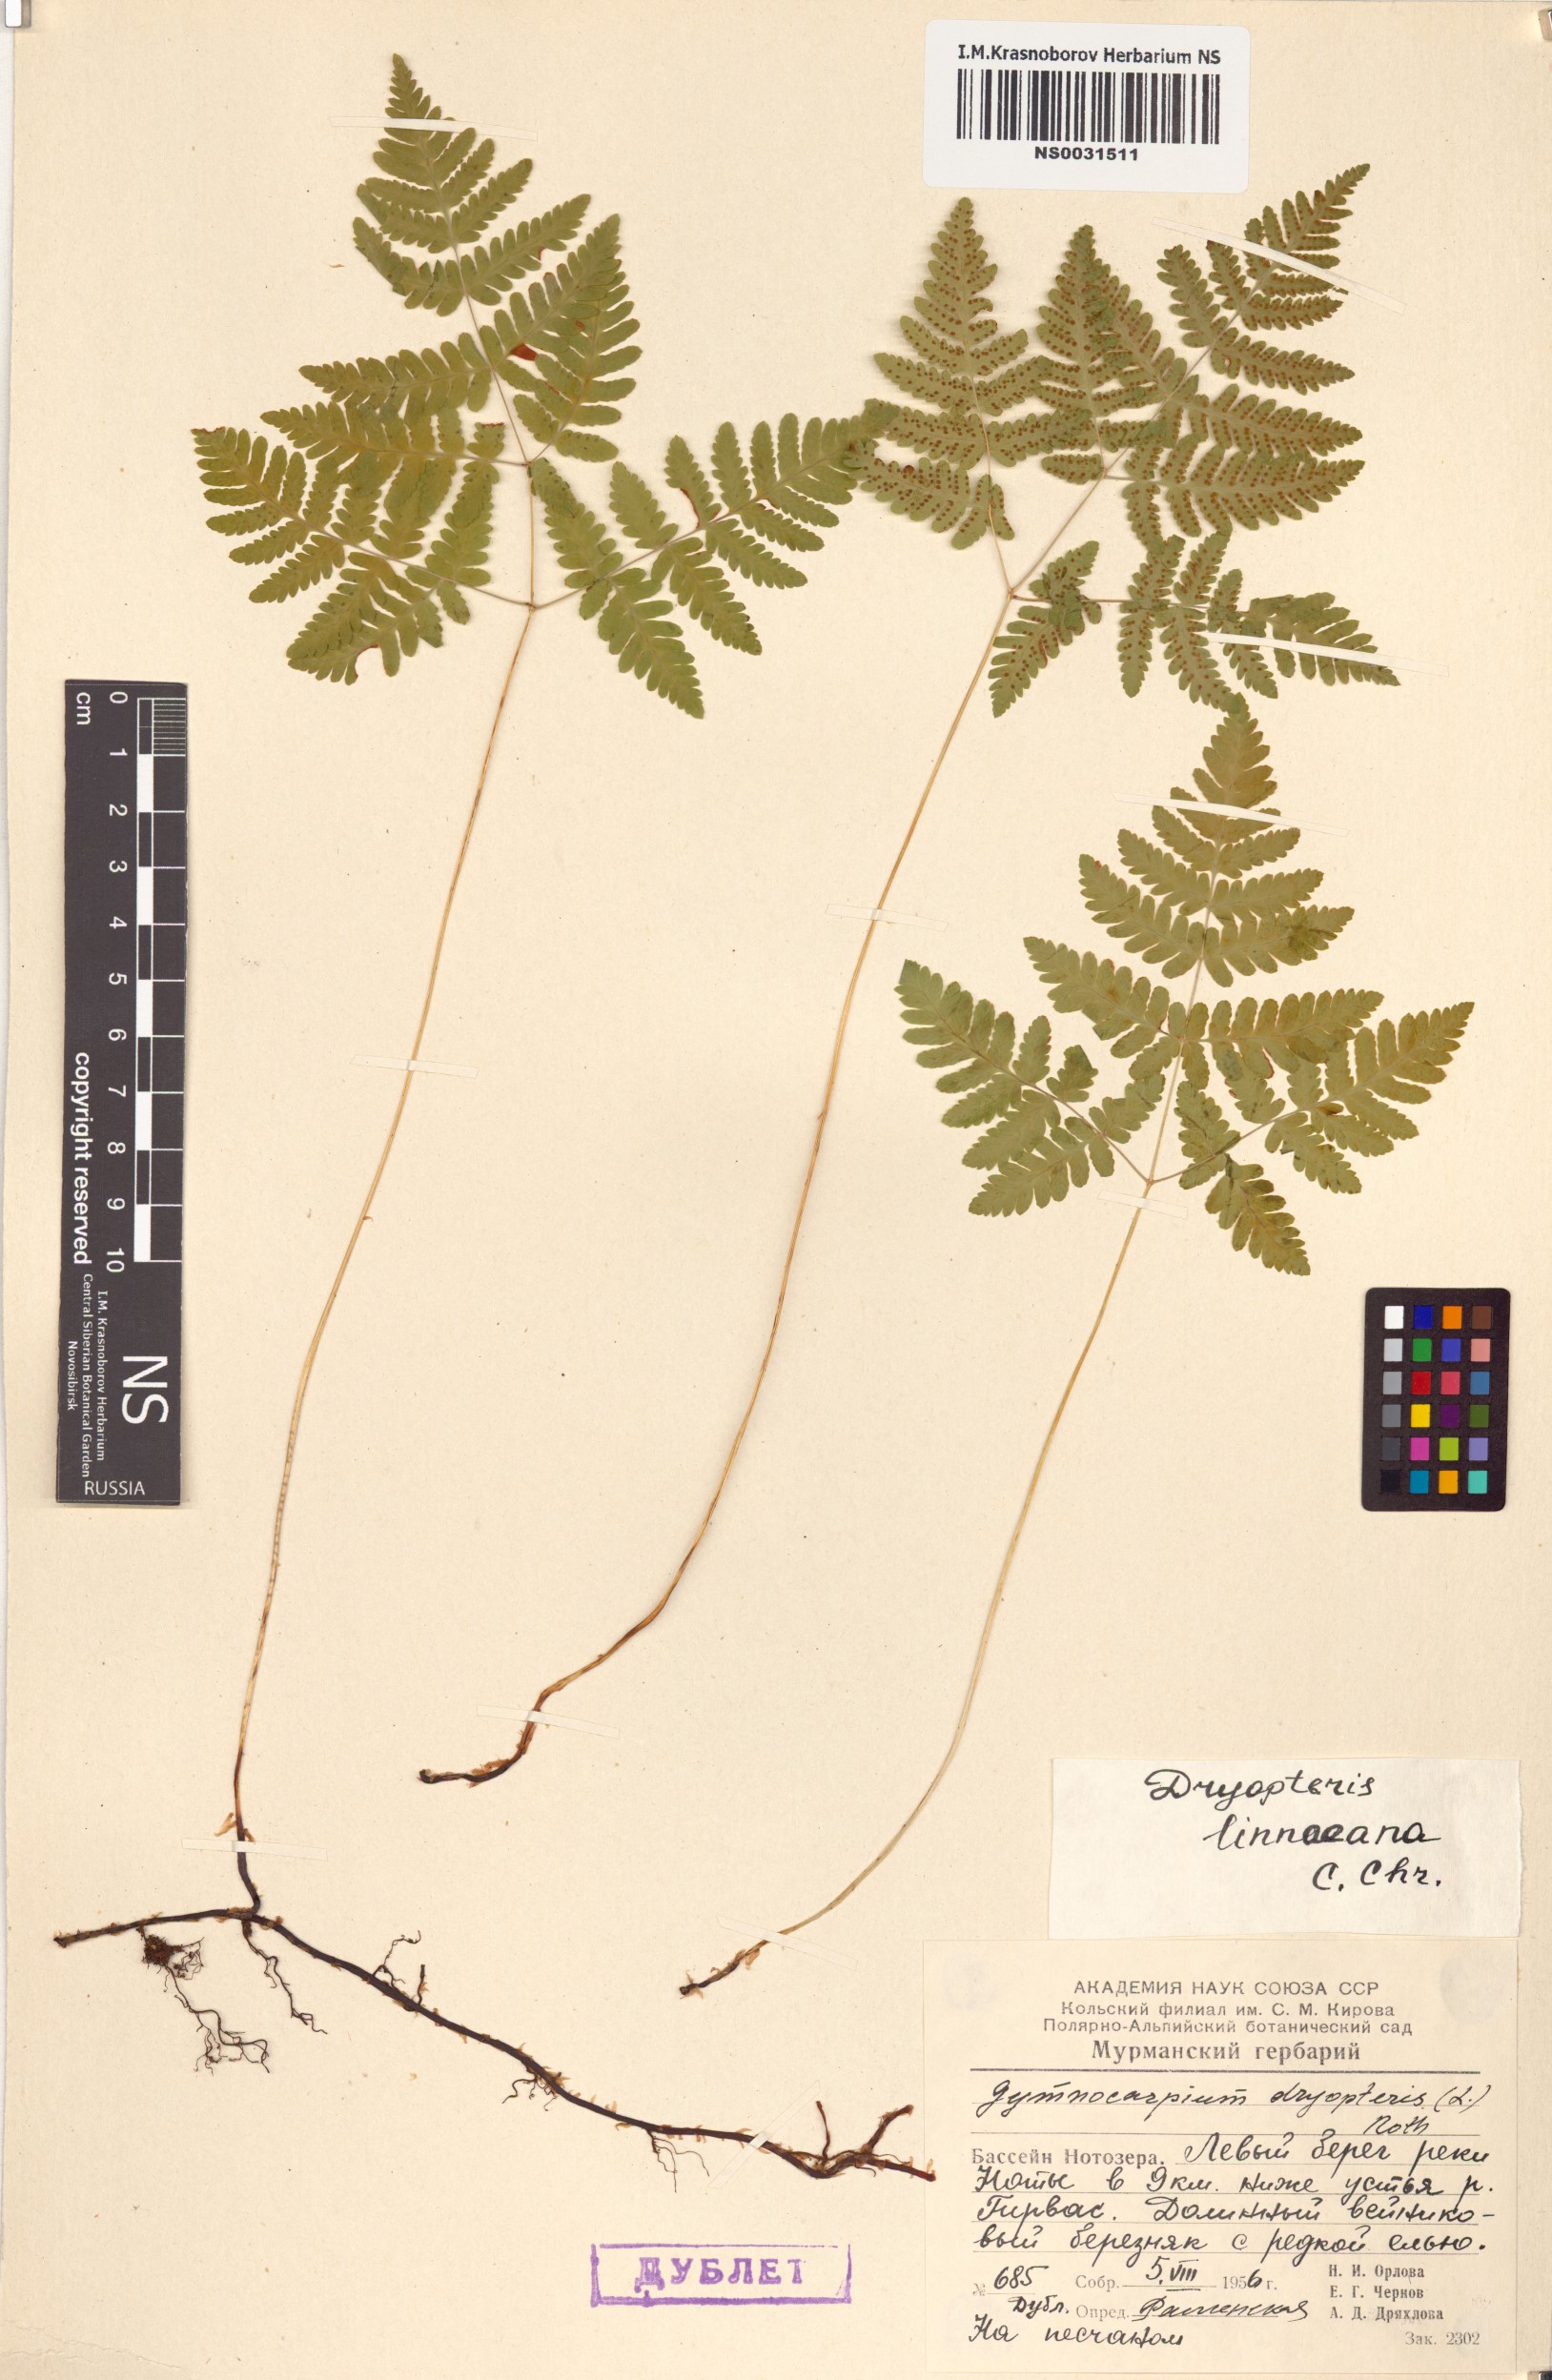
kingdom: Plantae
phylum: Tracheophyta
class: Polypodiopsida
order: Polypodiales
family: Cystopteridaceae
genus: Gymnocarpium
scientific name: Gymnocarpium dryopteris
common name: Oak fern
